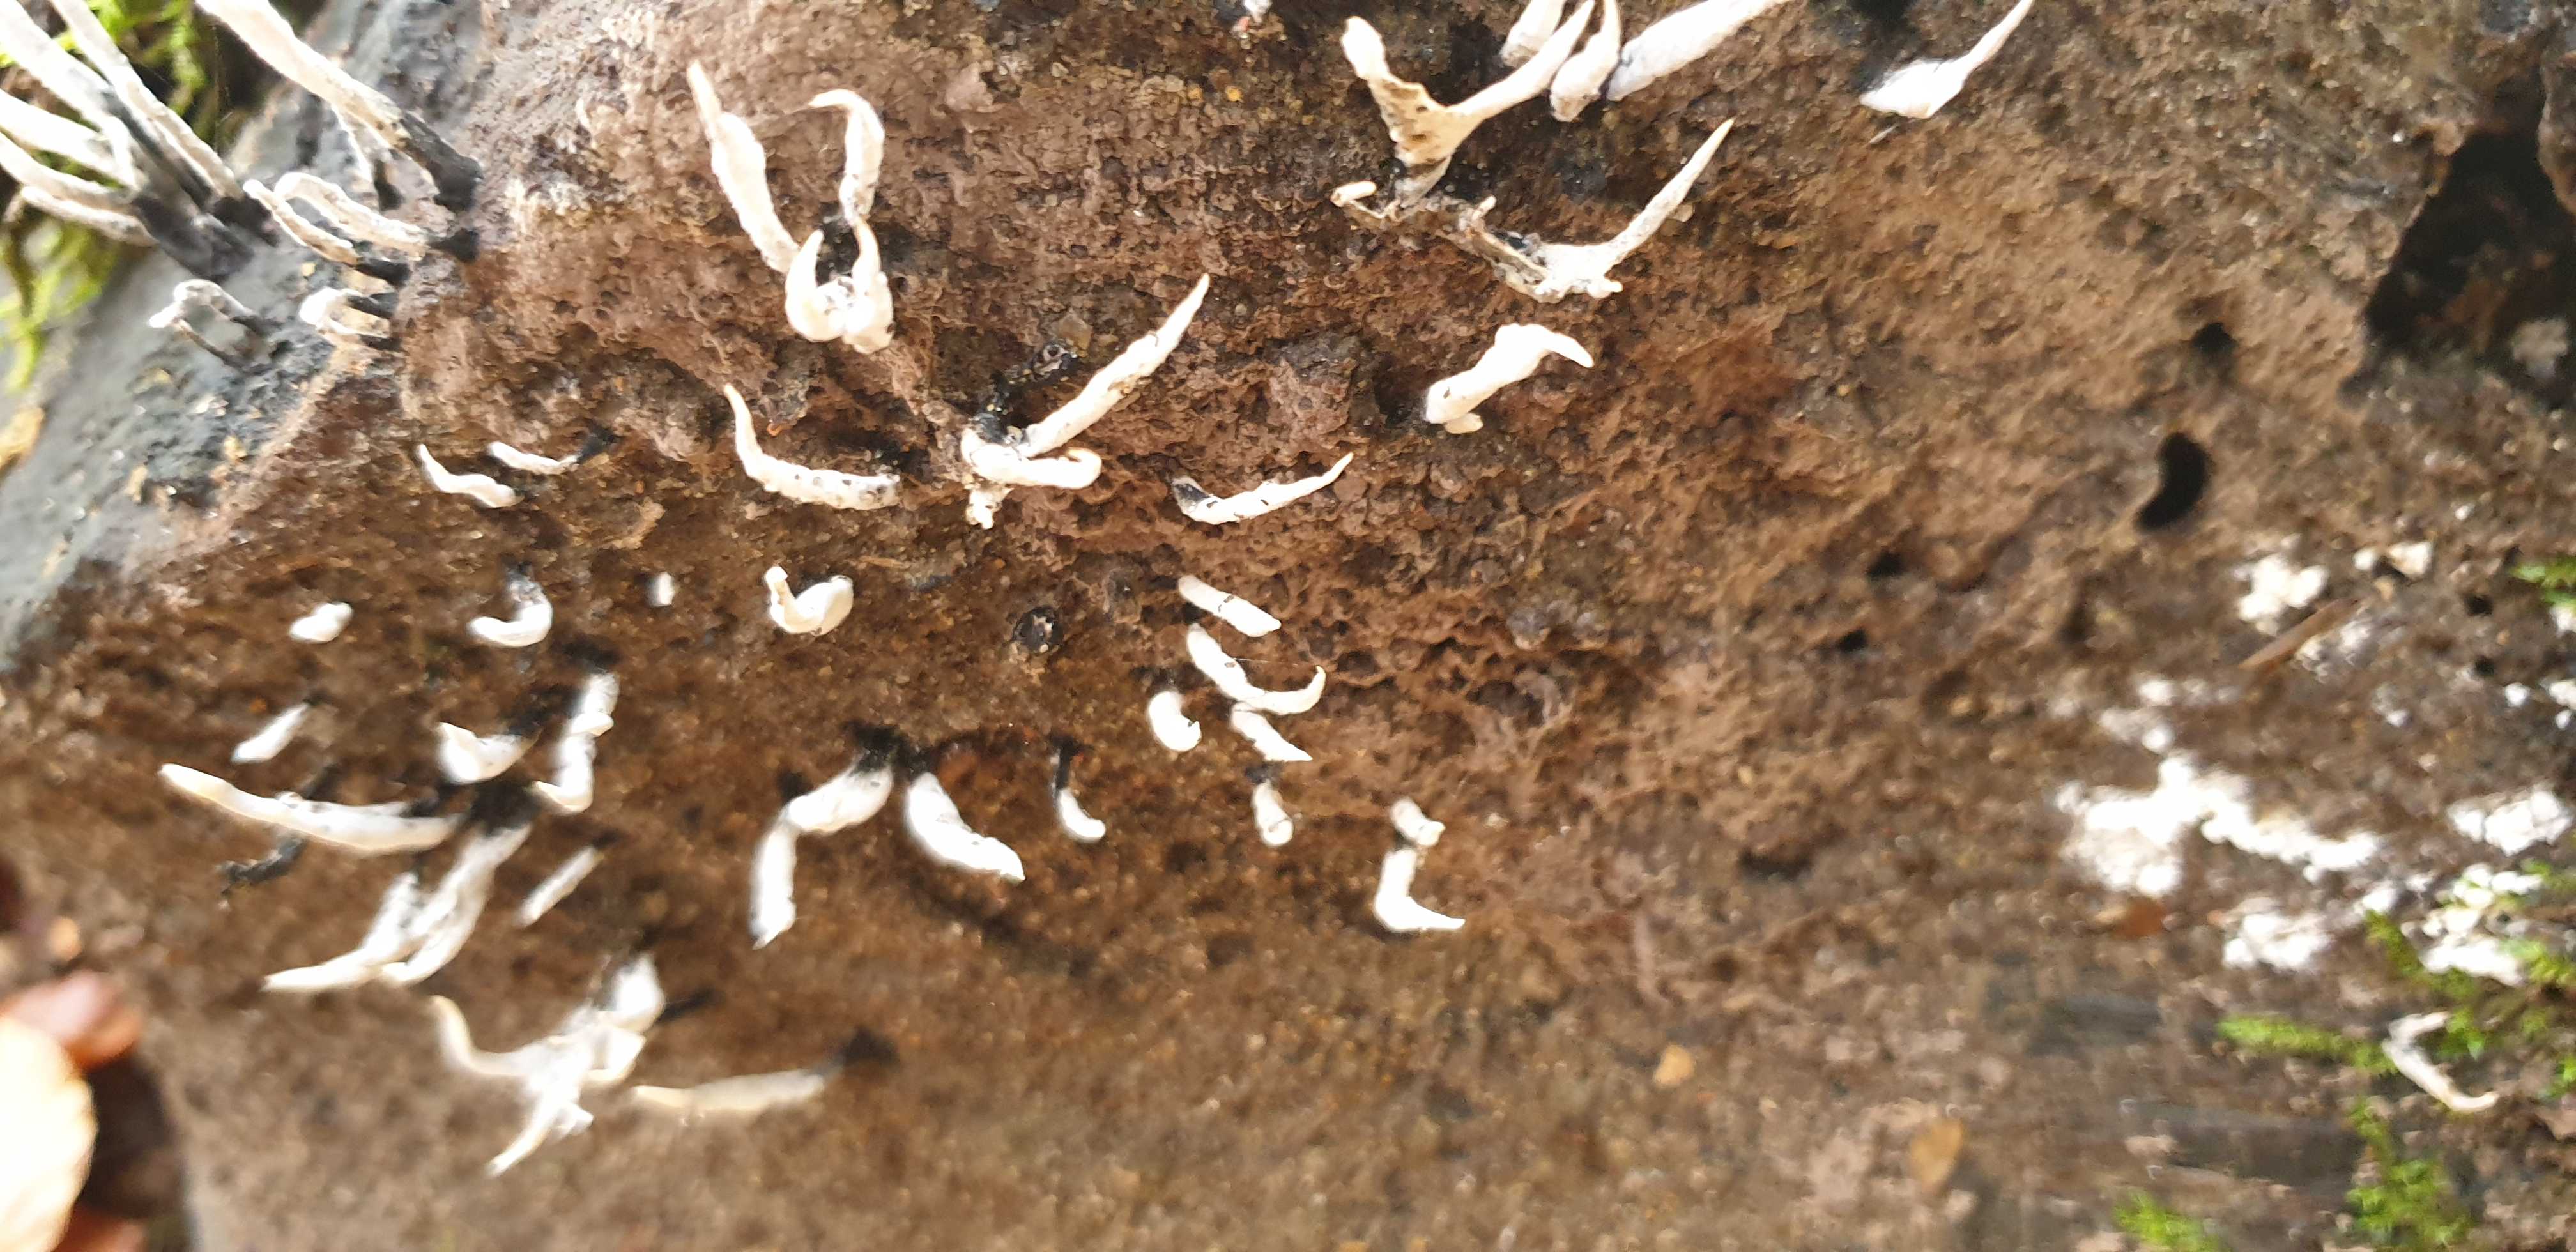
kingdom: Fungi
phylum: Ascomycota
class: Sordariomycetes
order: Xylariales
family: Xylariaceae
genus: Xylaria
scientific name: Xylaria hypoxylon
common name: grenet stødsvamp
